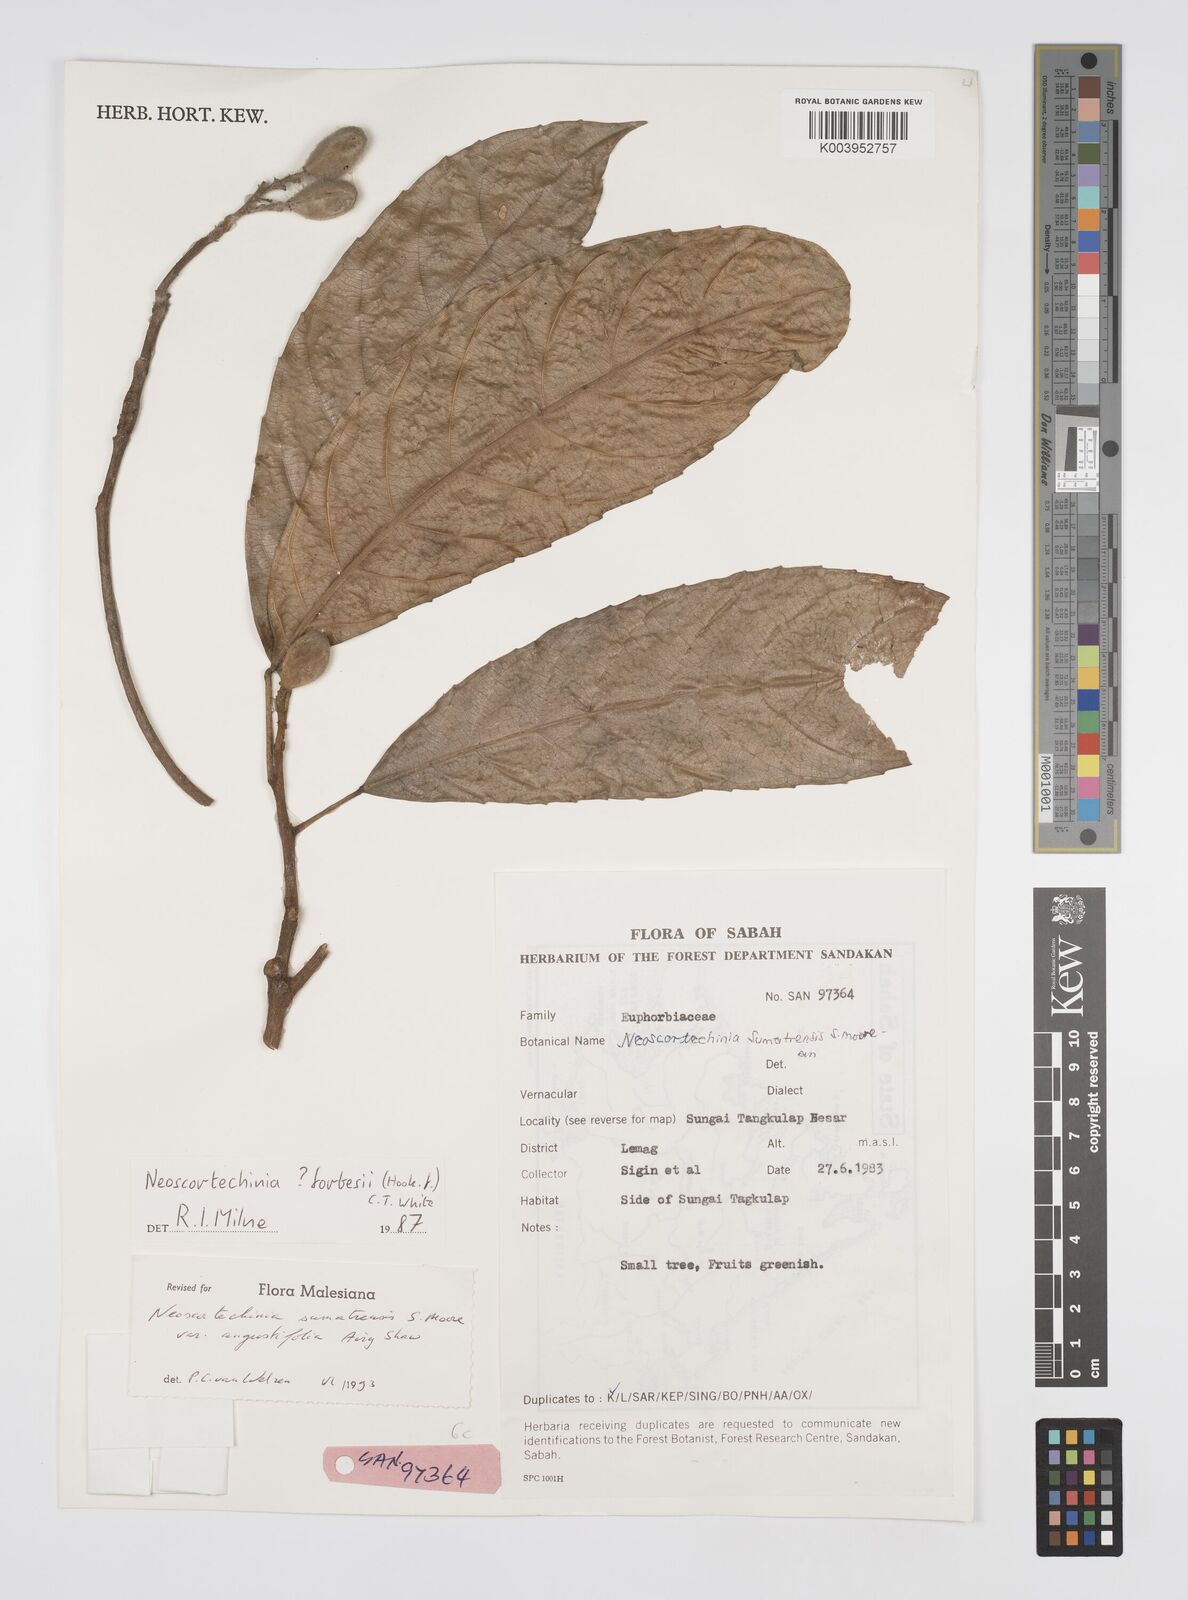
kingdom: Plantae
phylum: Tracheophyta
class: Magnoliopsida
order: Malpighiales
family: Euphorbiaceae
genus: Neoscortechinia
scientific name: Neoscortechinia angustifolia
